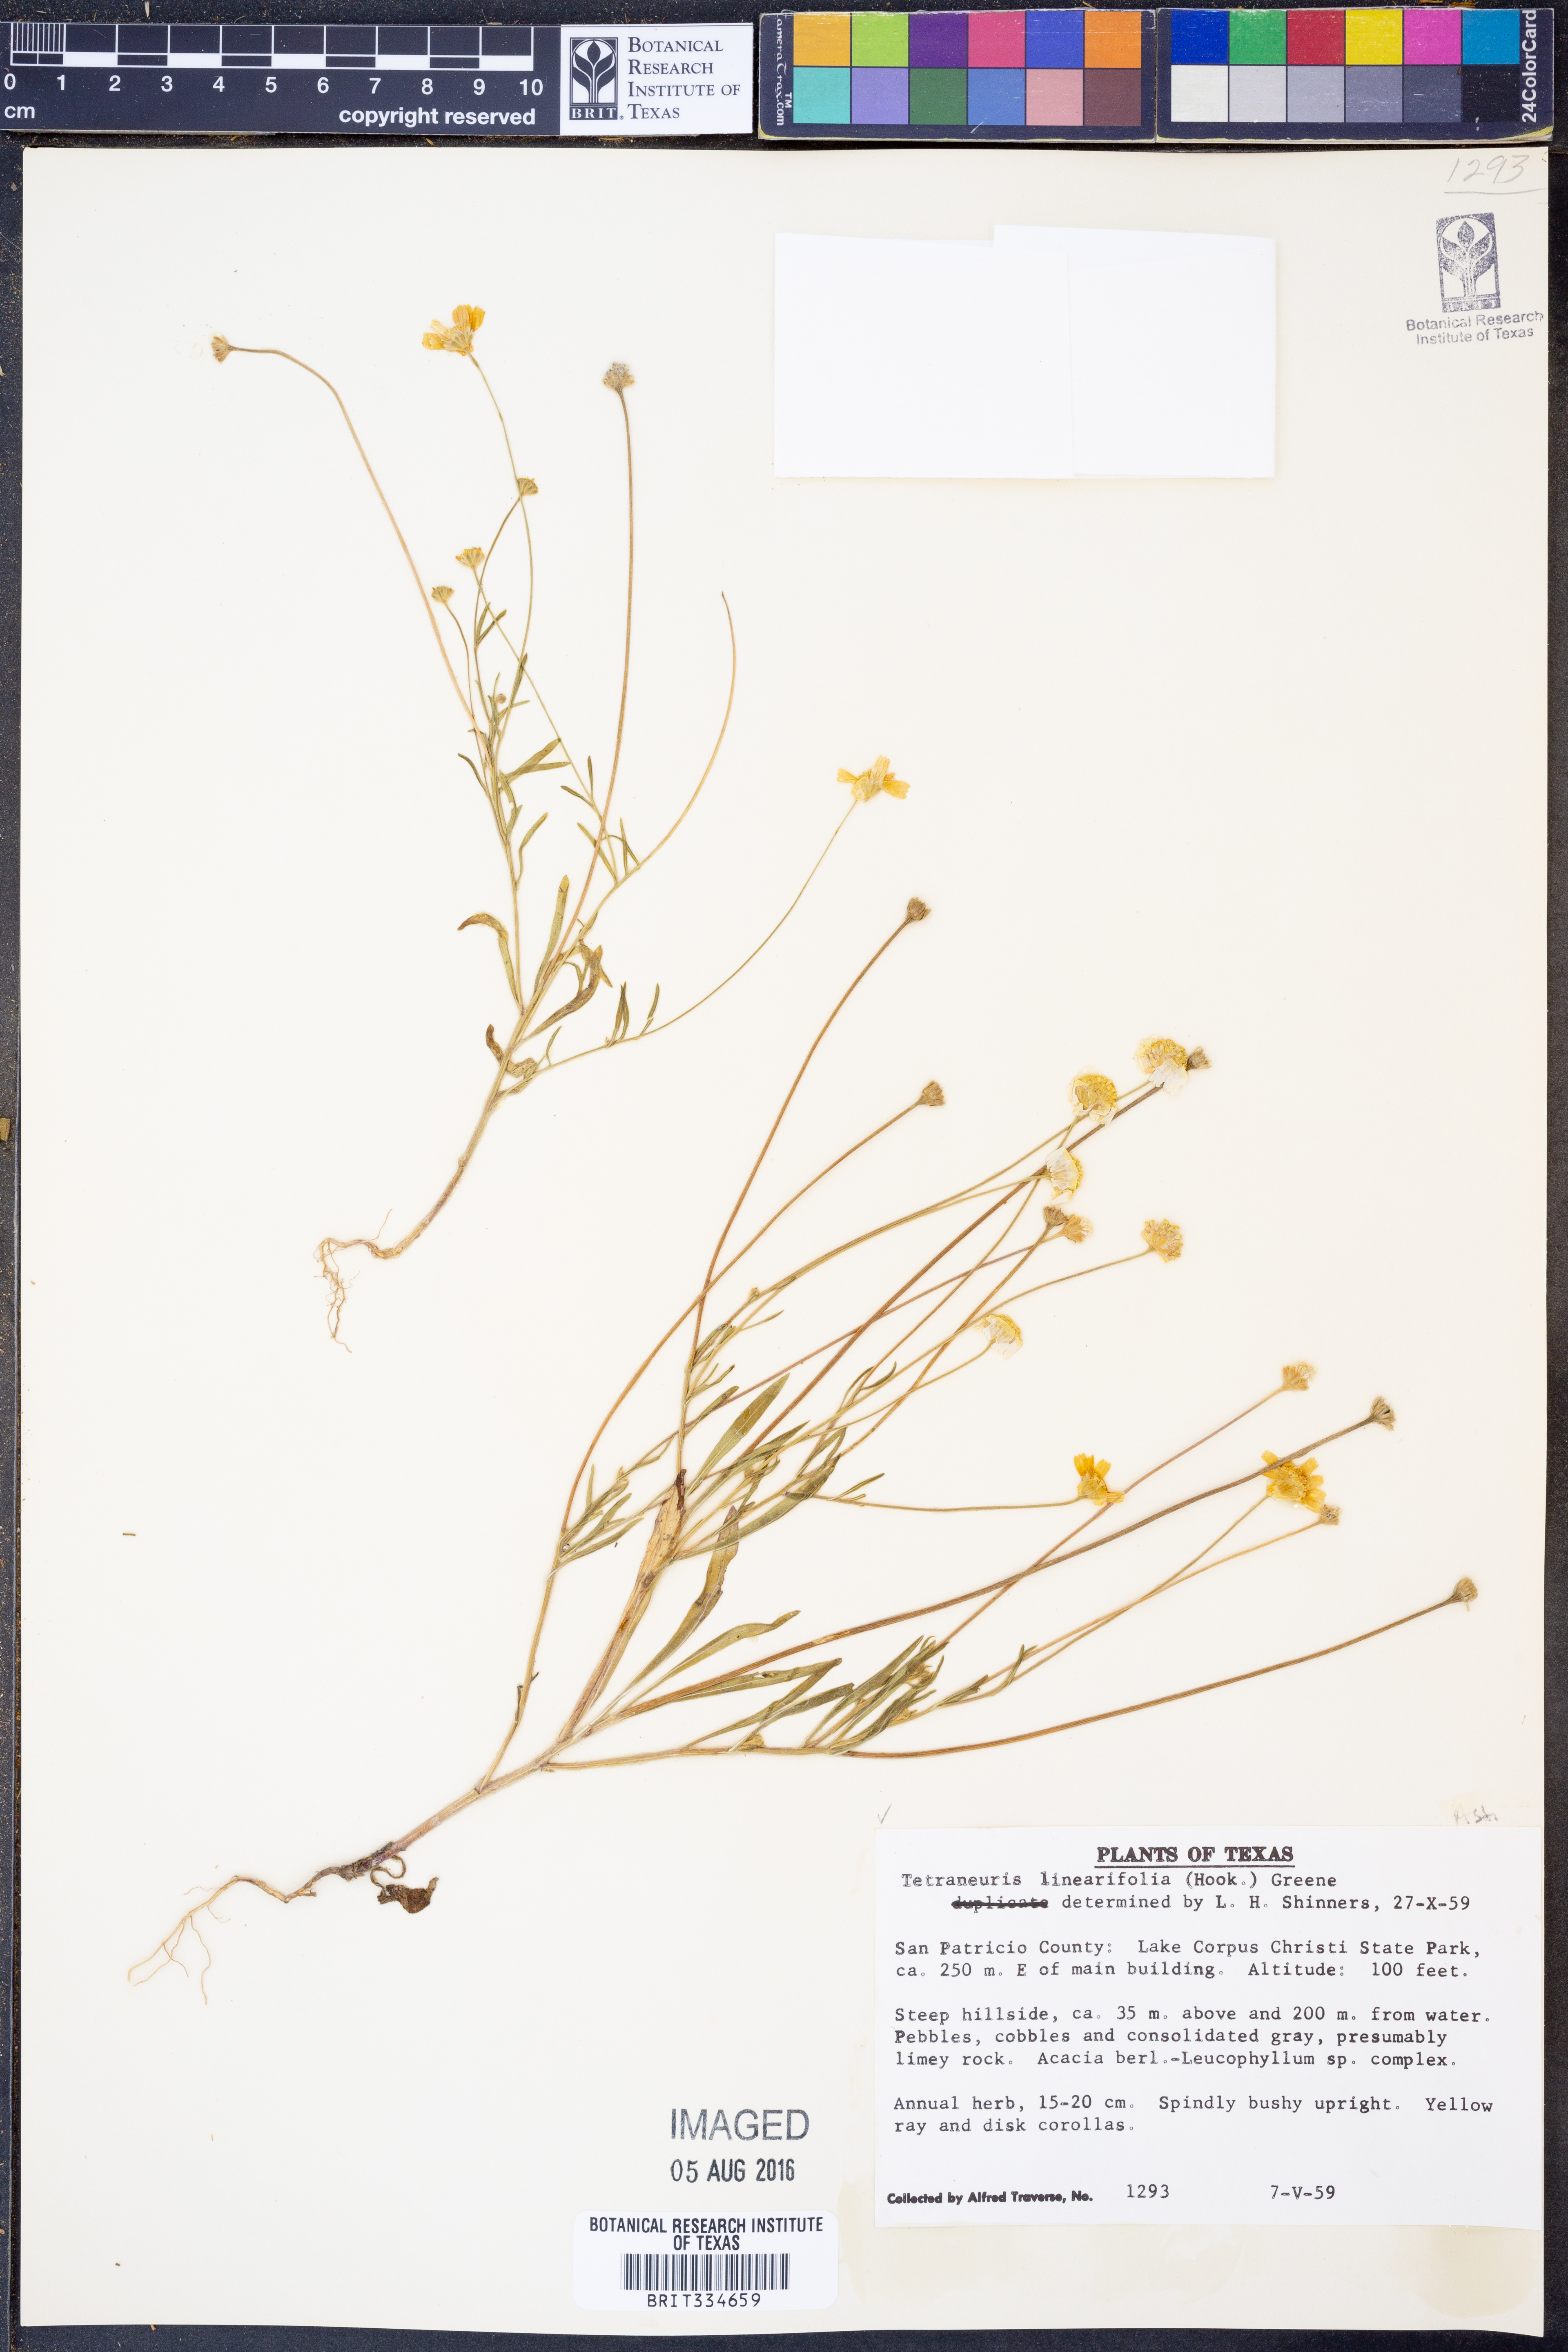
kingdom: Plantae
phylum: Tracheophyta
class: Magnoliopsida
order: Asterales
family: Asteraceae
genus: Tetraneuris
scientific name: Tetraneuris linearifolia
